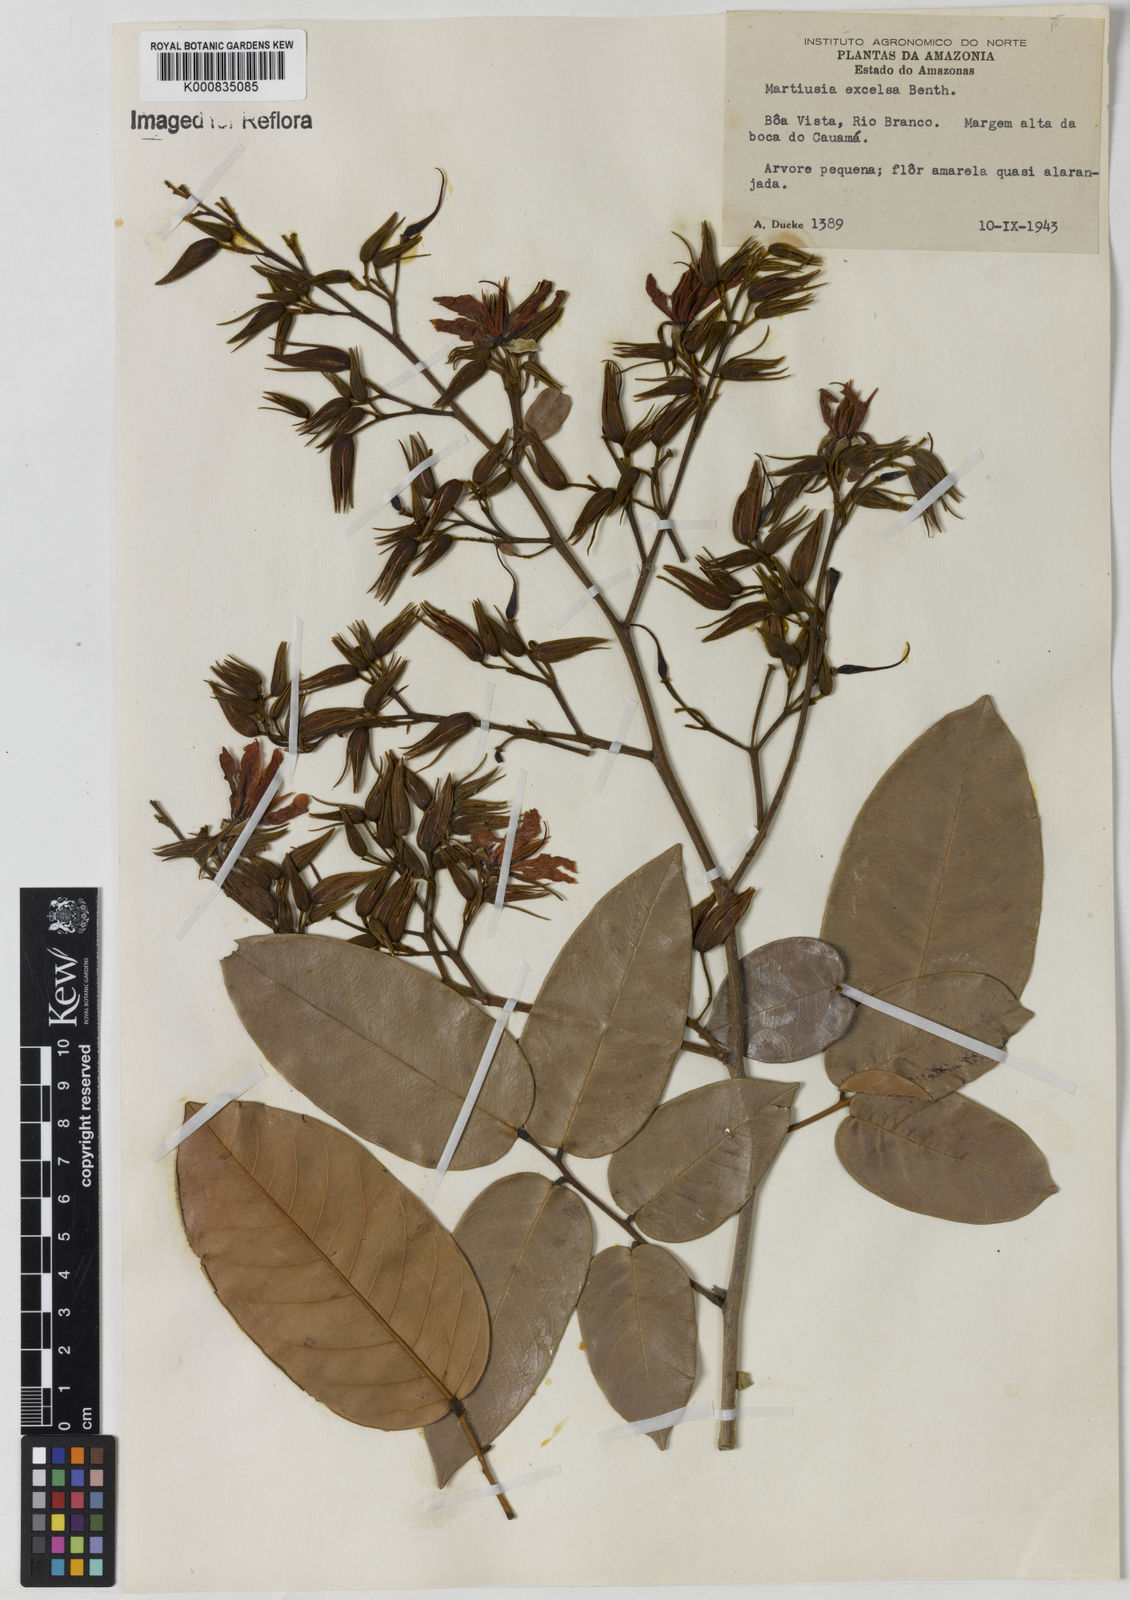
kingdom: Plantae
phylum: Tracheophyta
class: Magnoliopsida
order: Fabales
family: Fabaceae
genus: Martiodendron
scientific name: Martiodendron excelsum
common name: Tatabuballi
